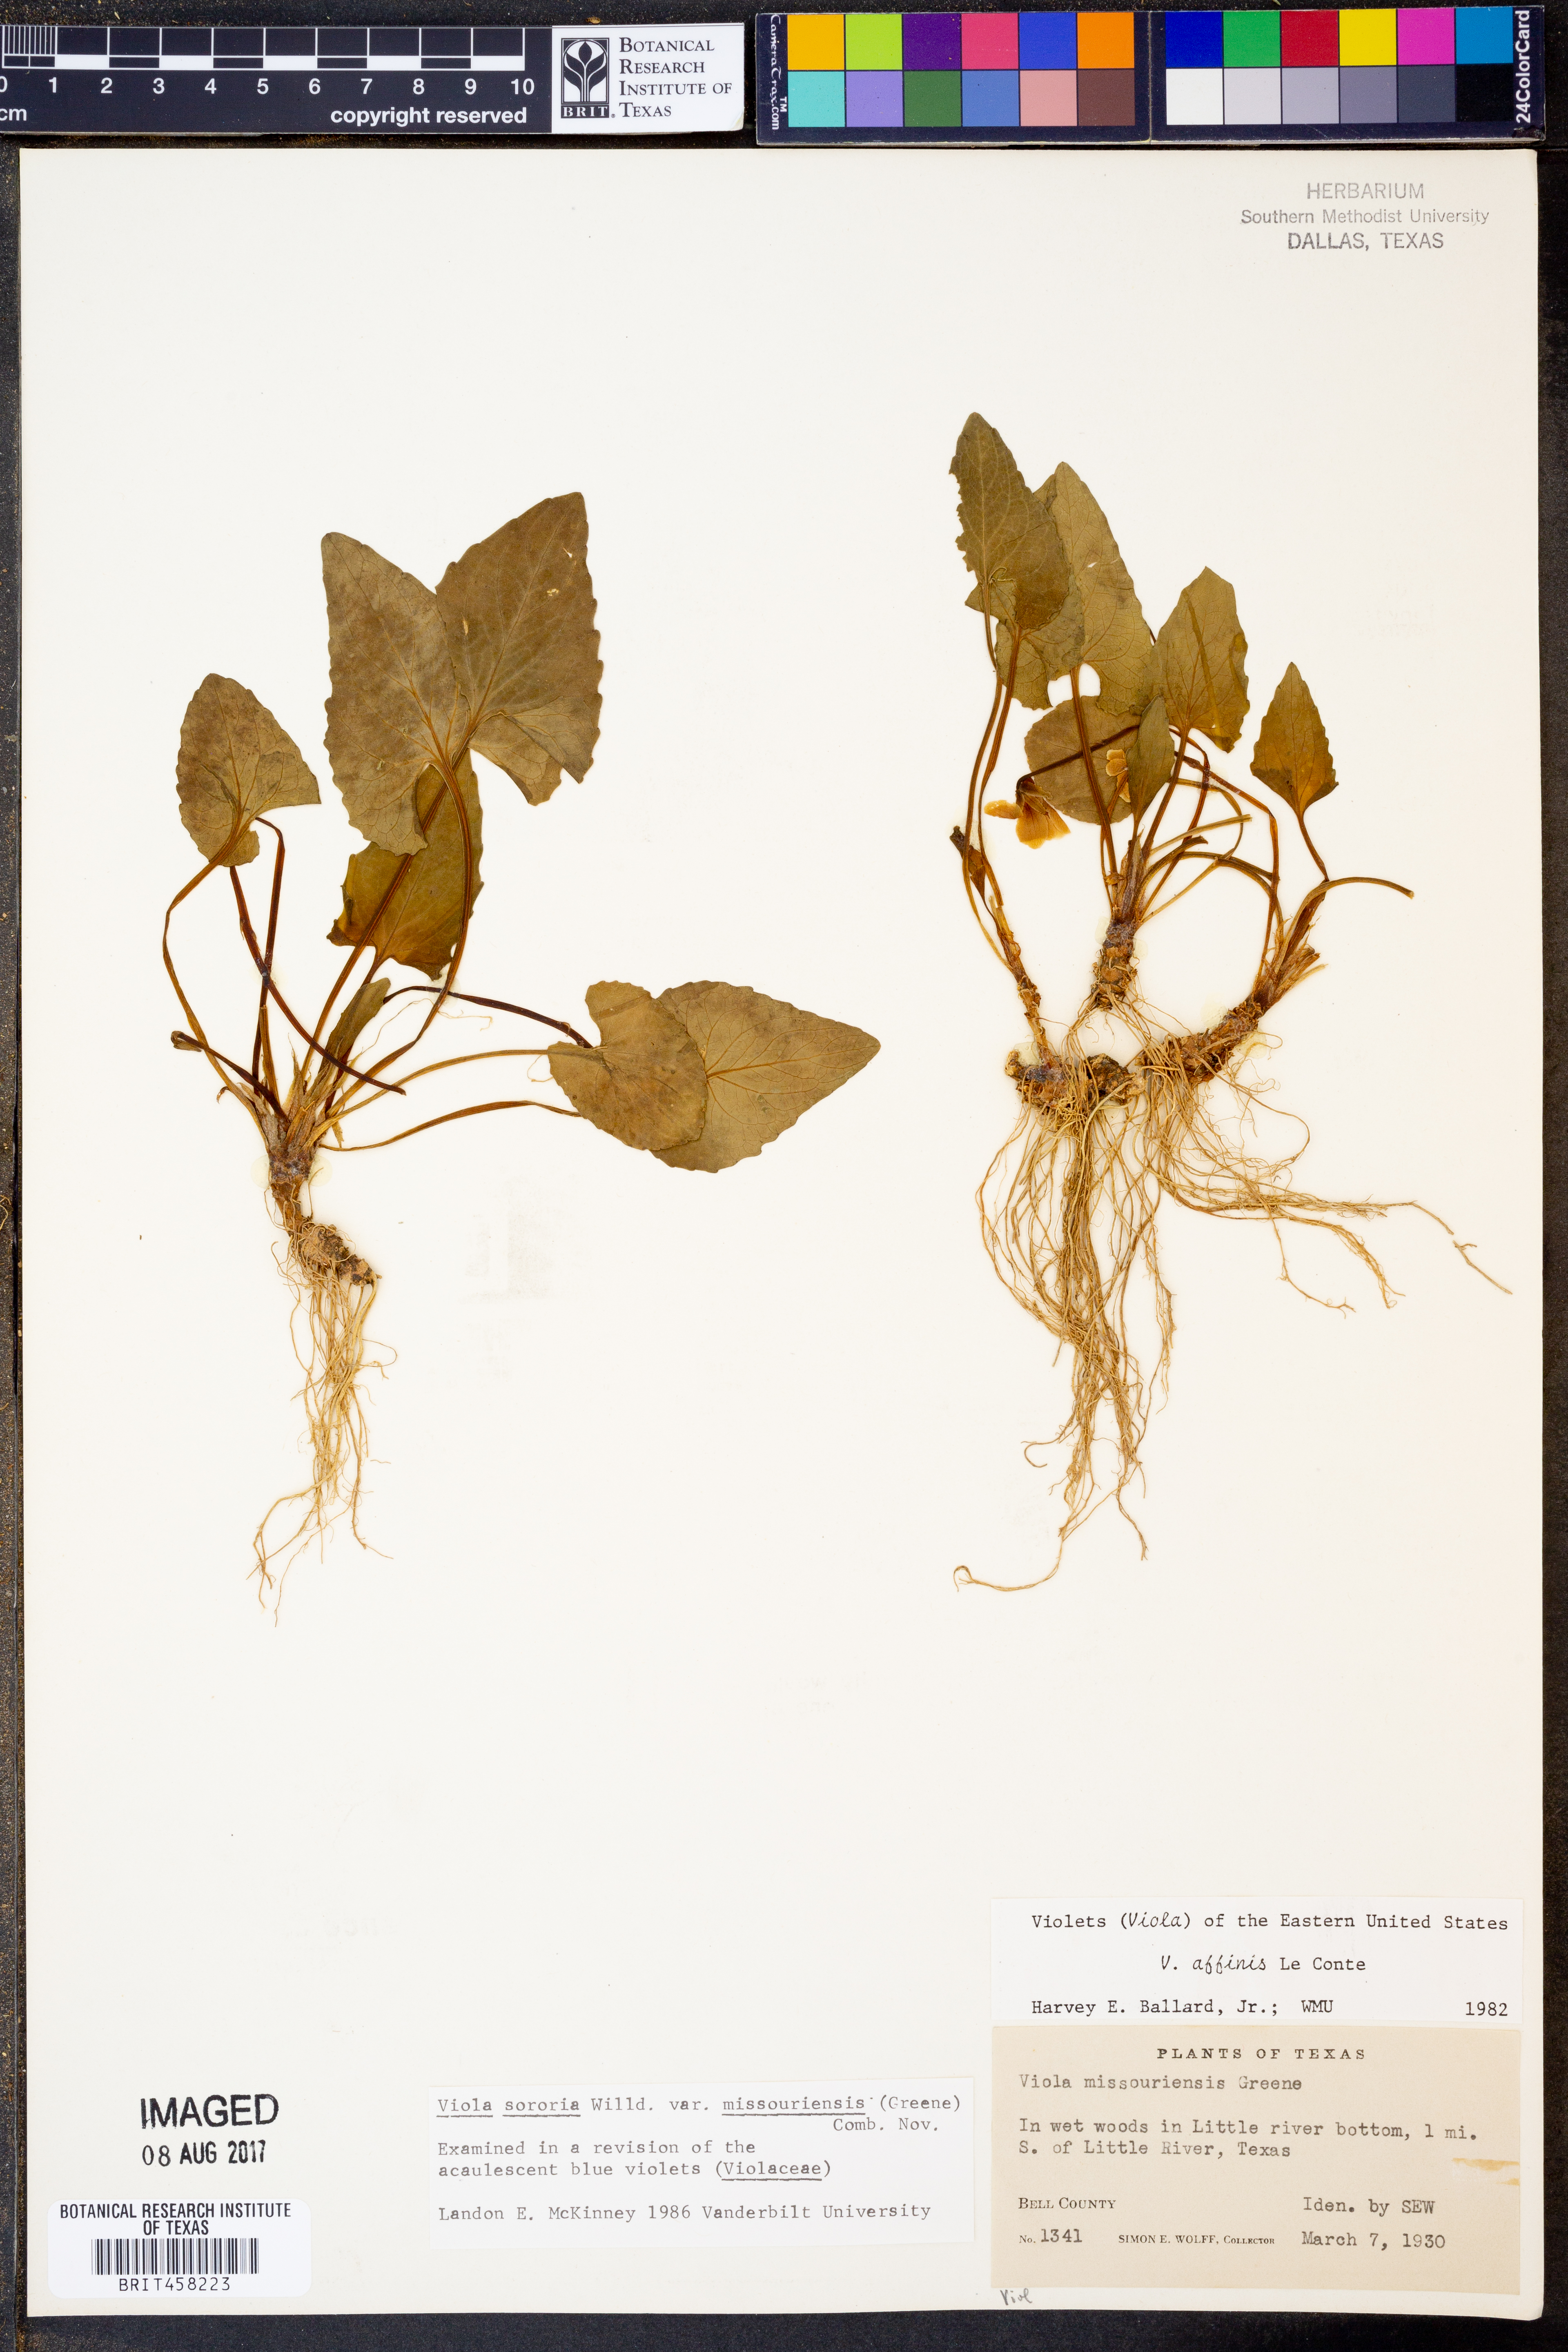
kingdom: Plantae
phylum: Tracheophyta
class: Magnoliopsida
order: Malpighiales
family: Violaceae
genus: Viola
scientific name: Viola missouriensis
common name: Missouri violet
